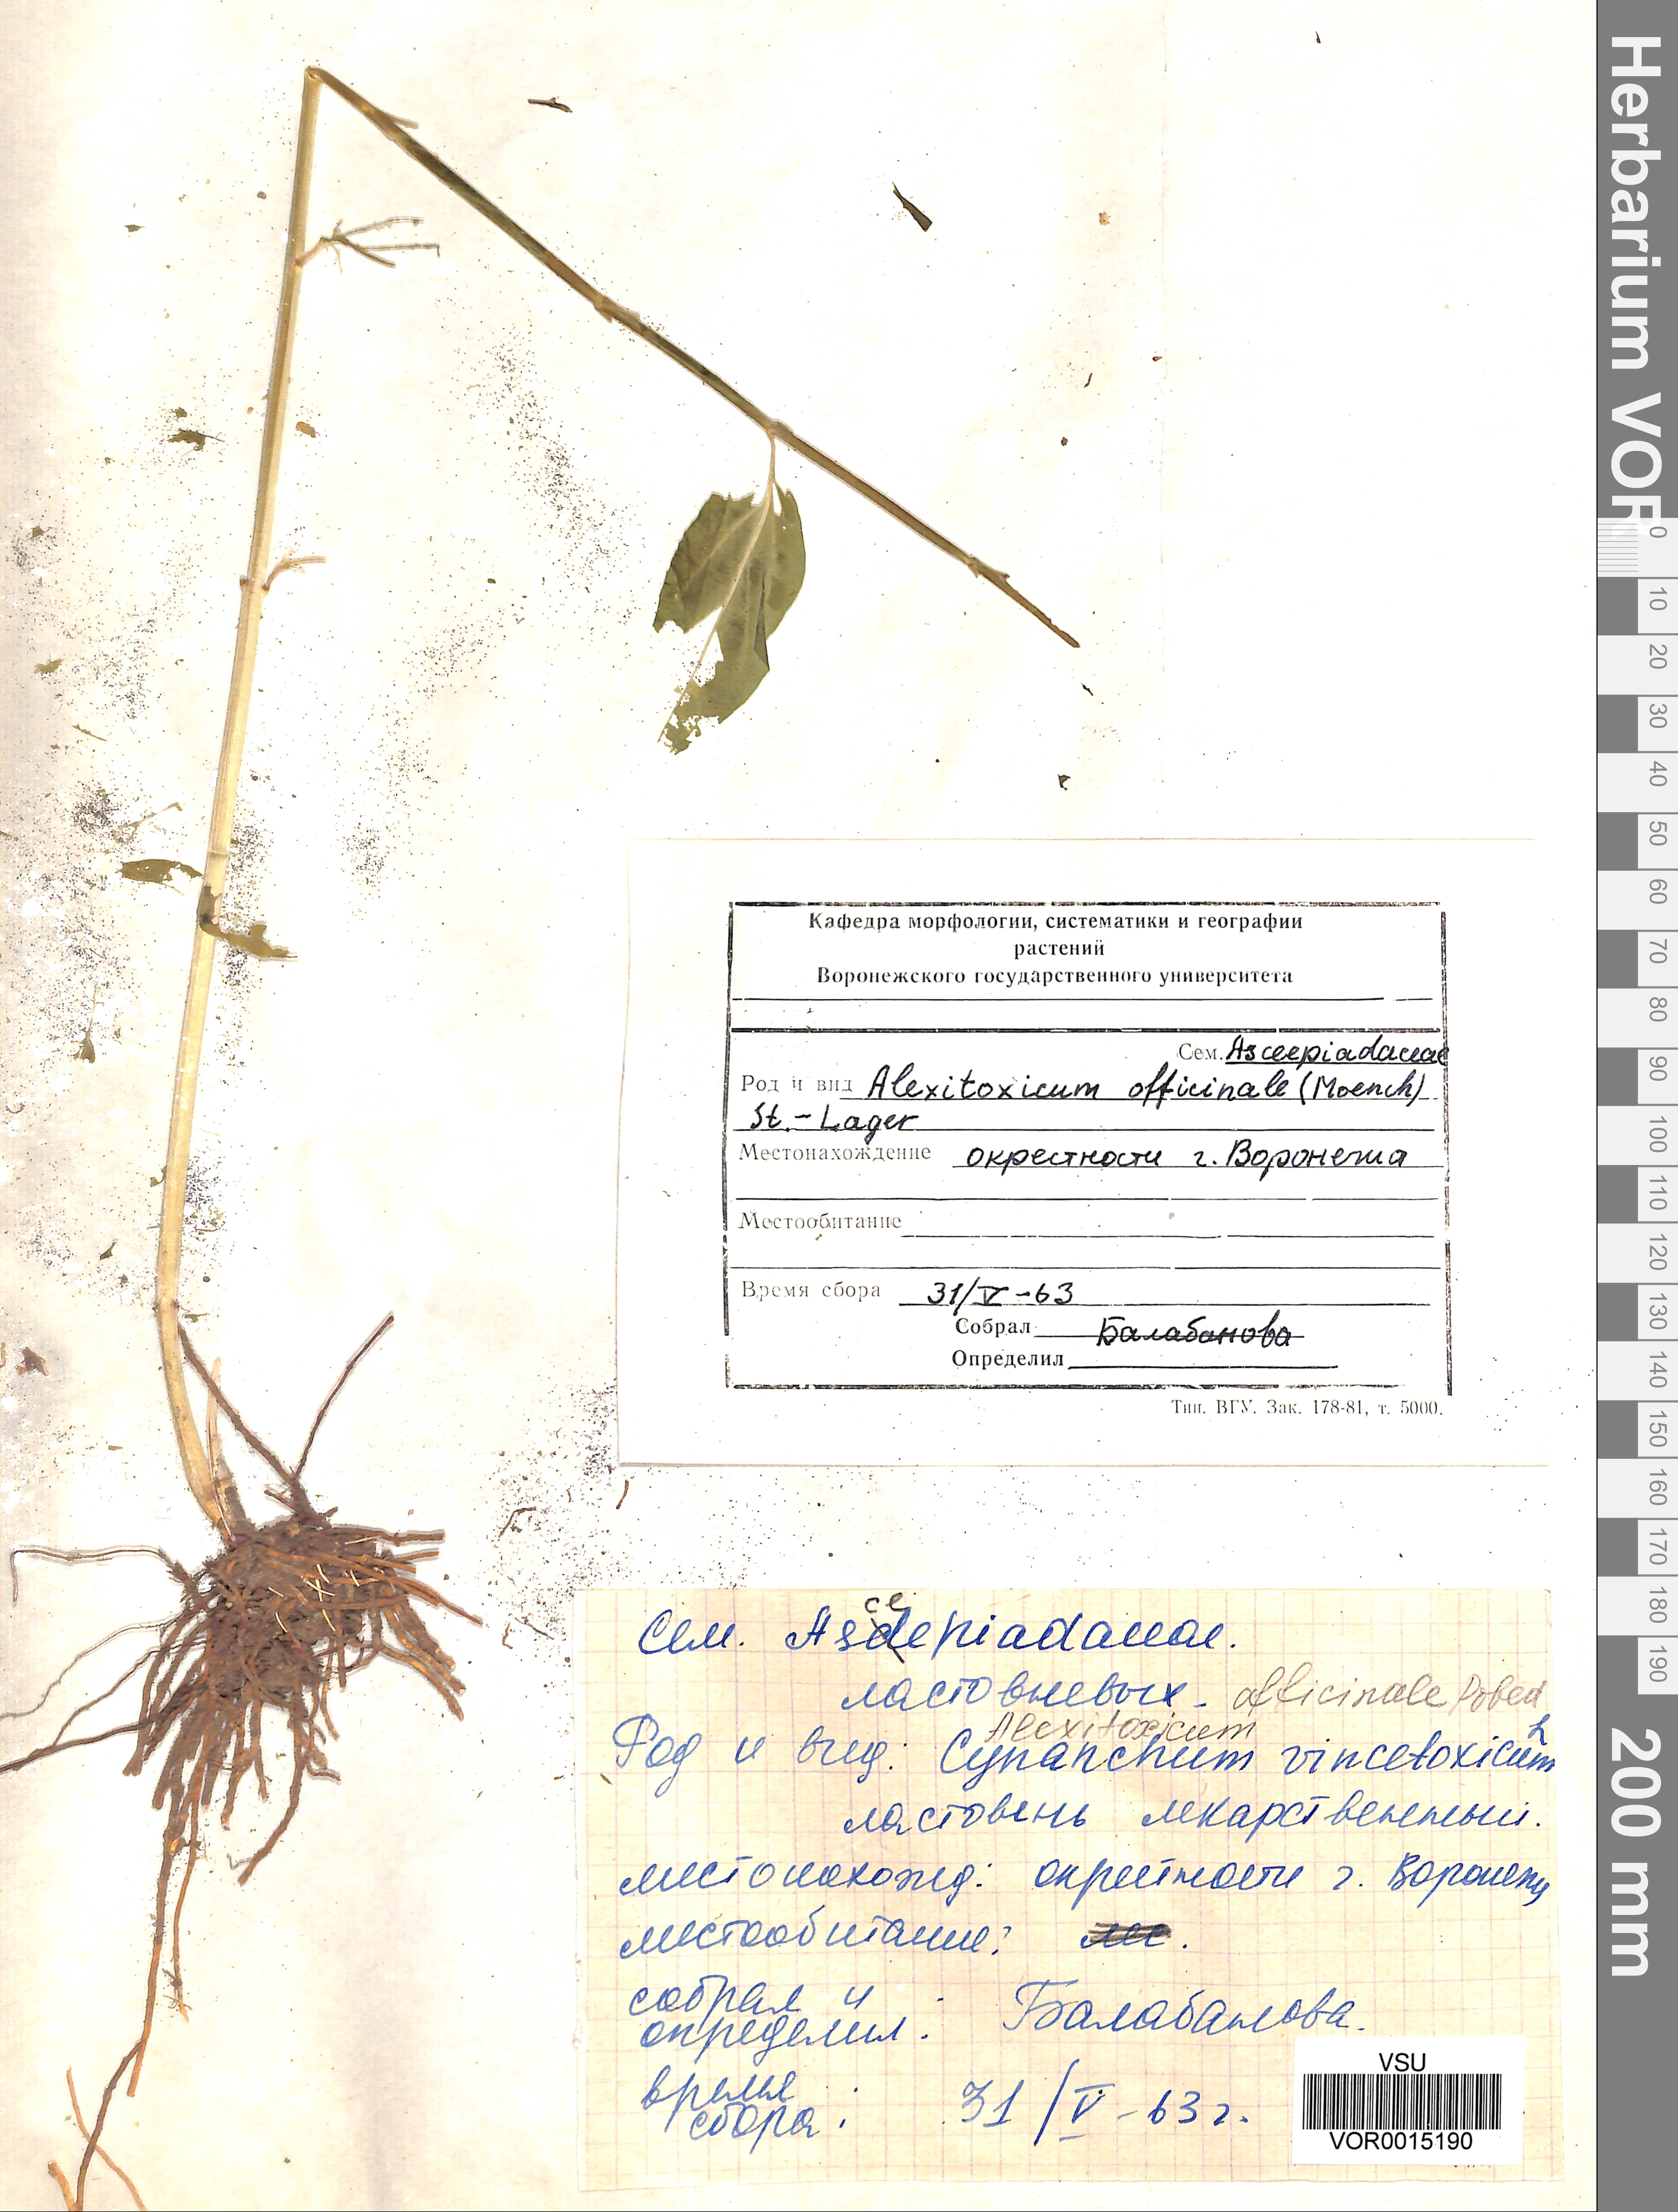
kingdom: Plantae
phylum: Tracheophyta
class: Magnoliopsida
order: Gentianales
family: Apocynaceae
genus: Vincetoxicum
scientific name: Vincetoxicum hirundinaria
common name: White swallowwort
